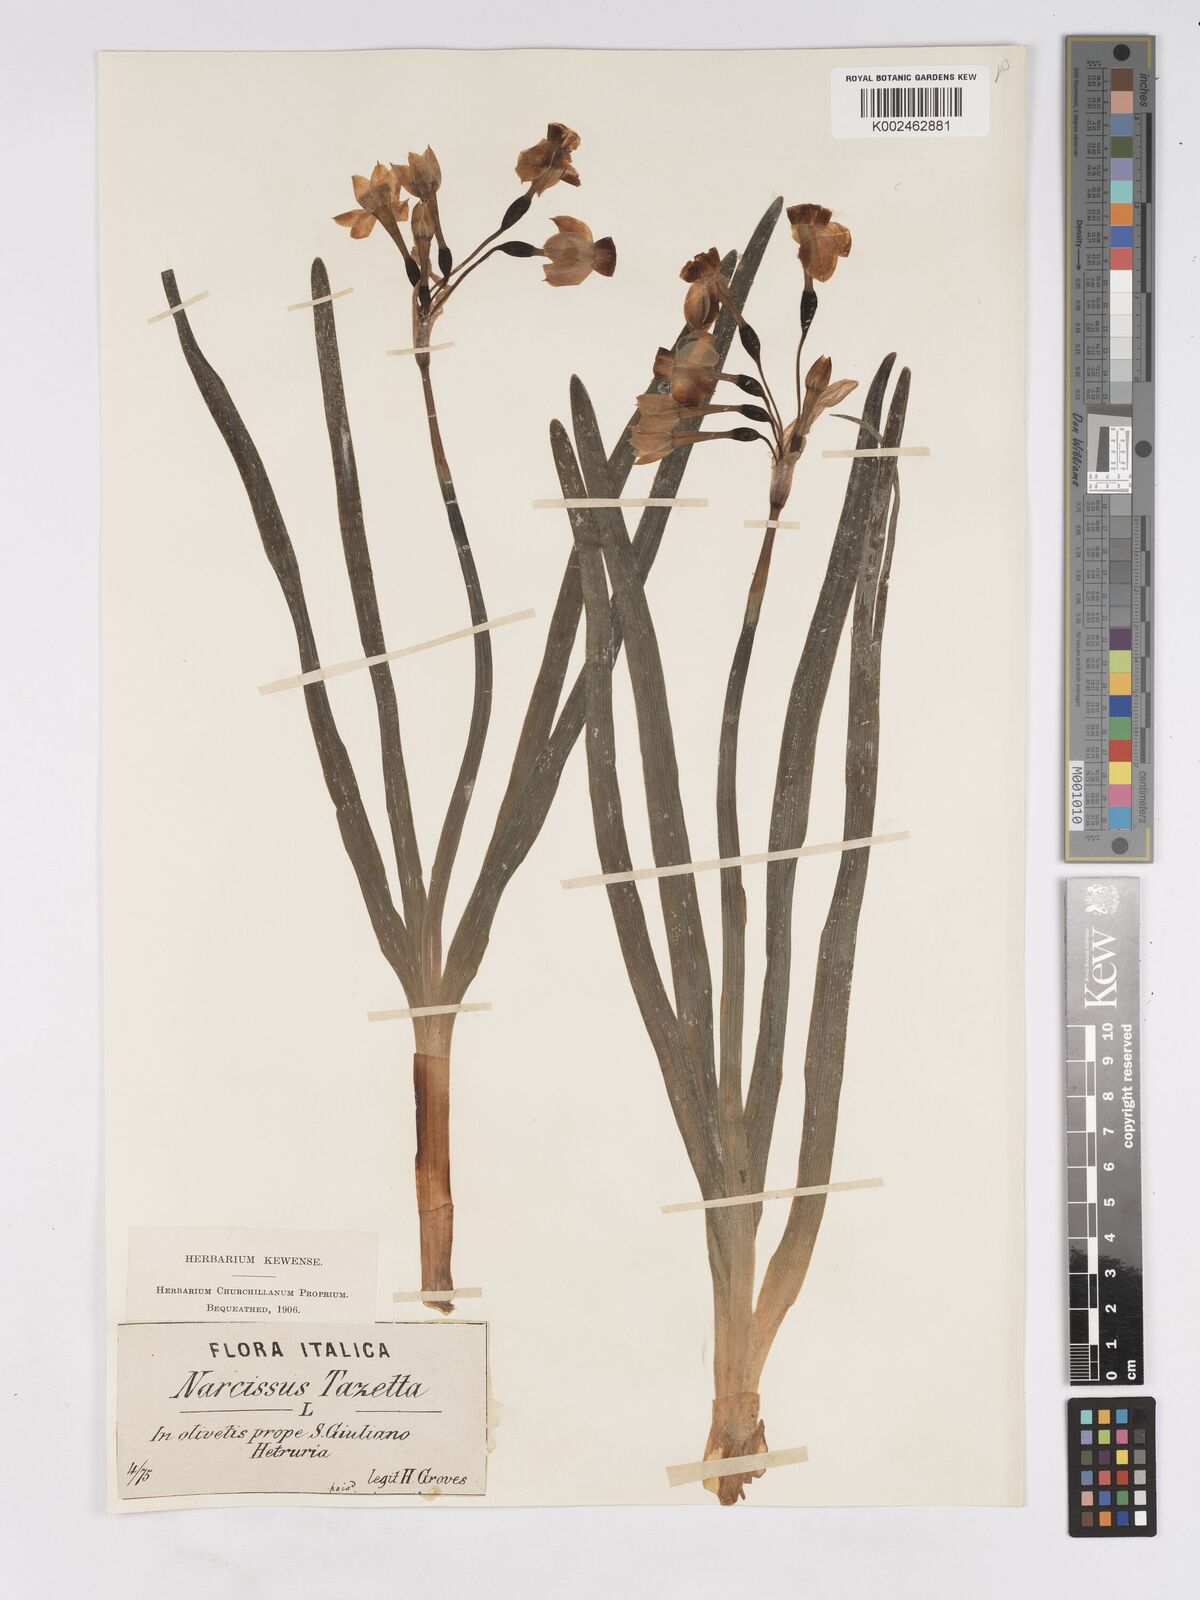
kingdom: Plantae
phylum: Tracheophyta
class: Liliopsida
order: Asparagales
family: Amaryllidaceae
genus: Narcissus
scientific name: Narcissus
